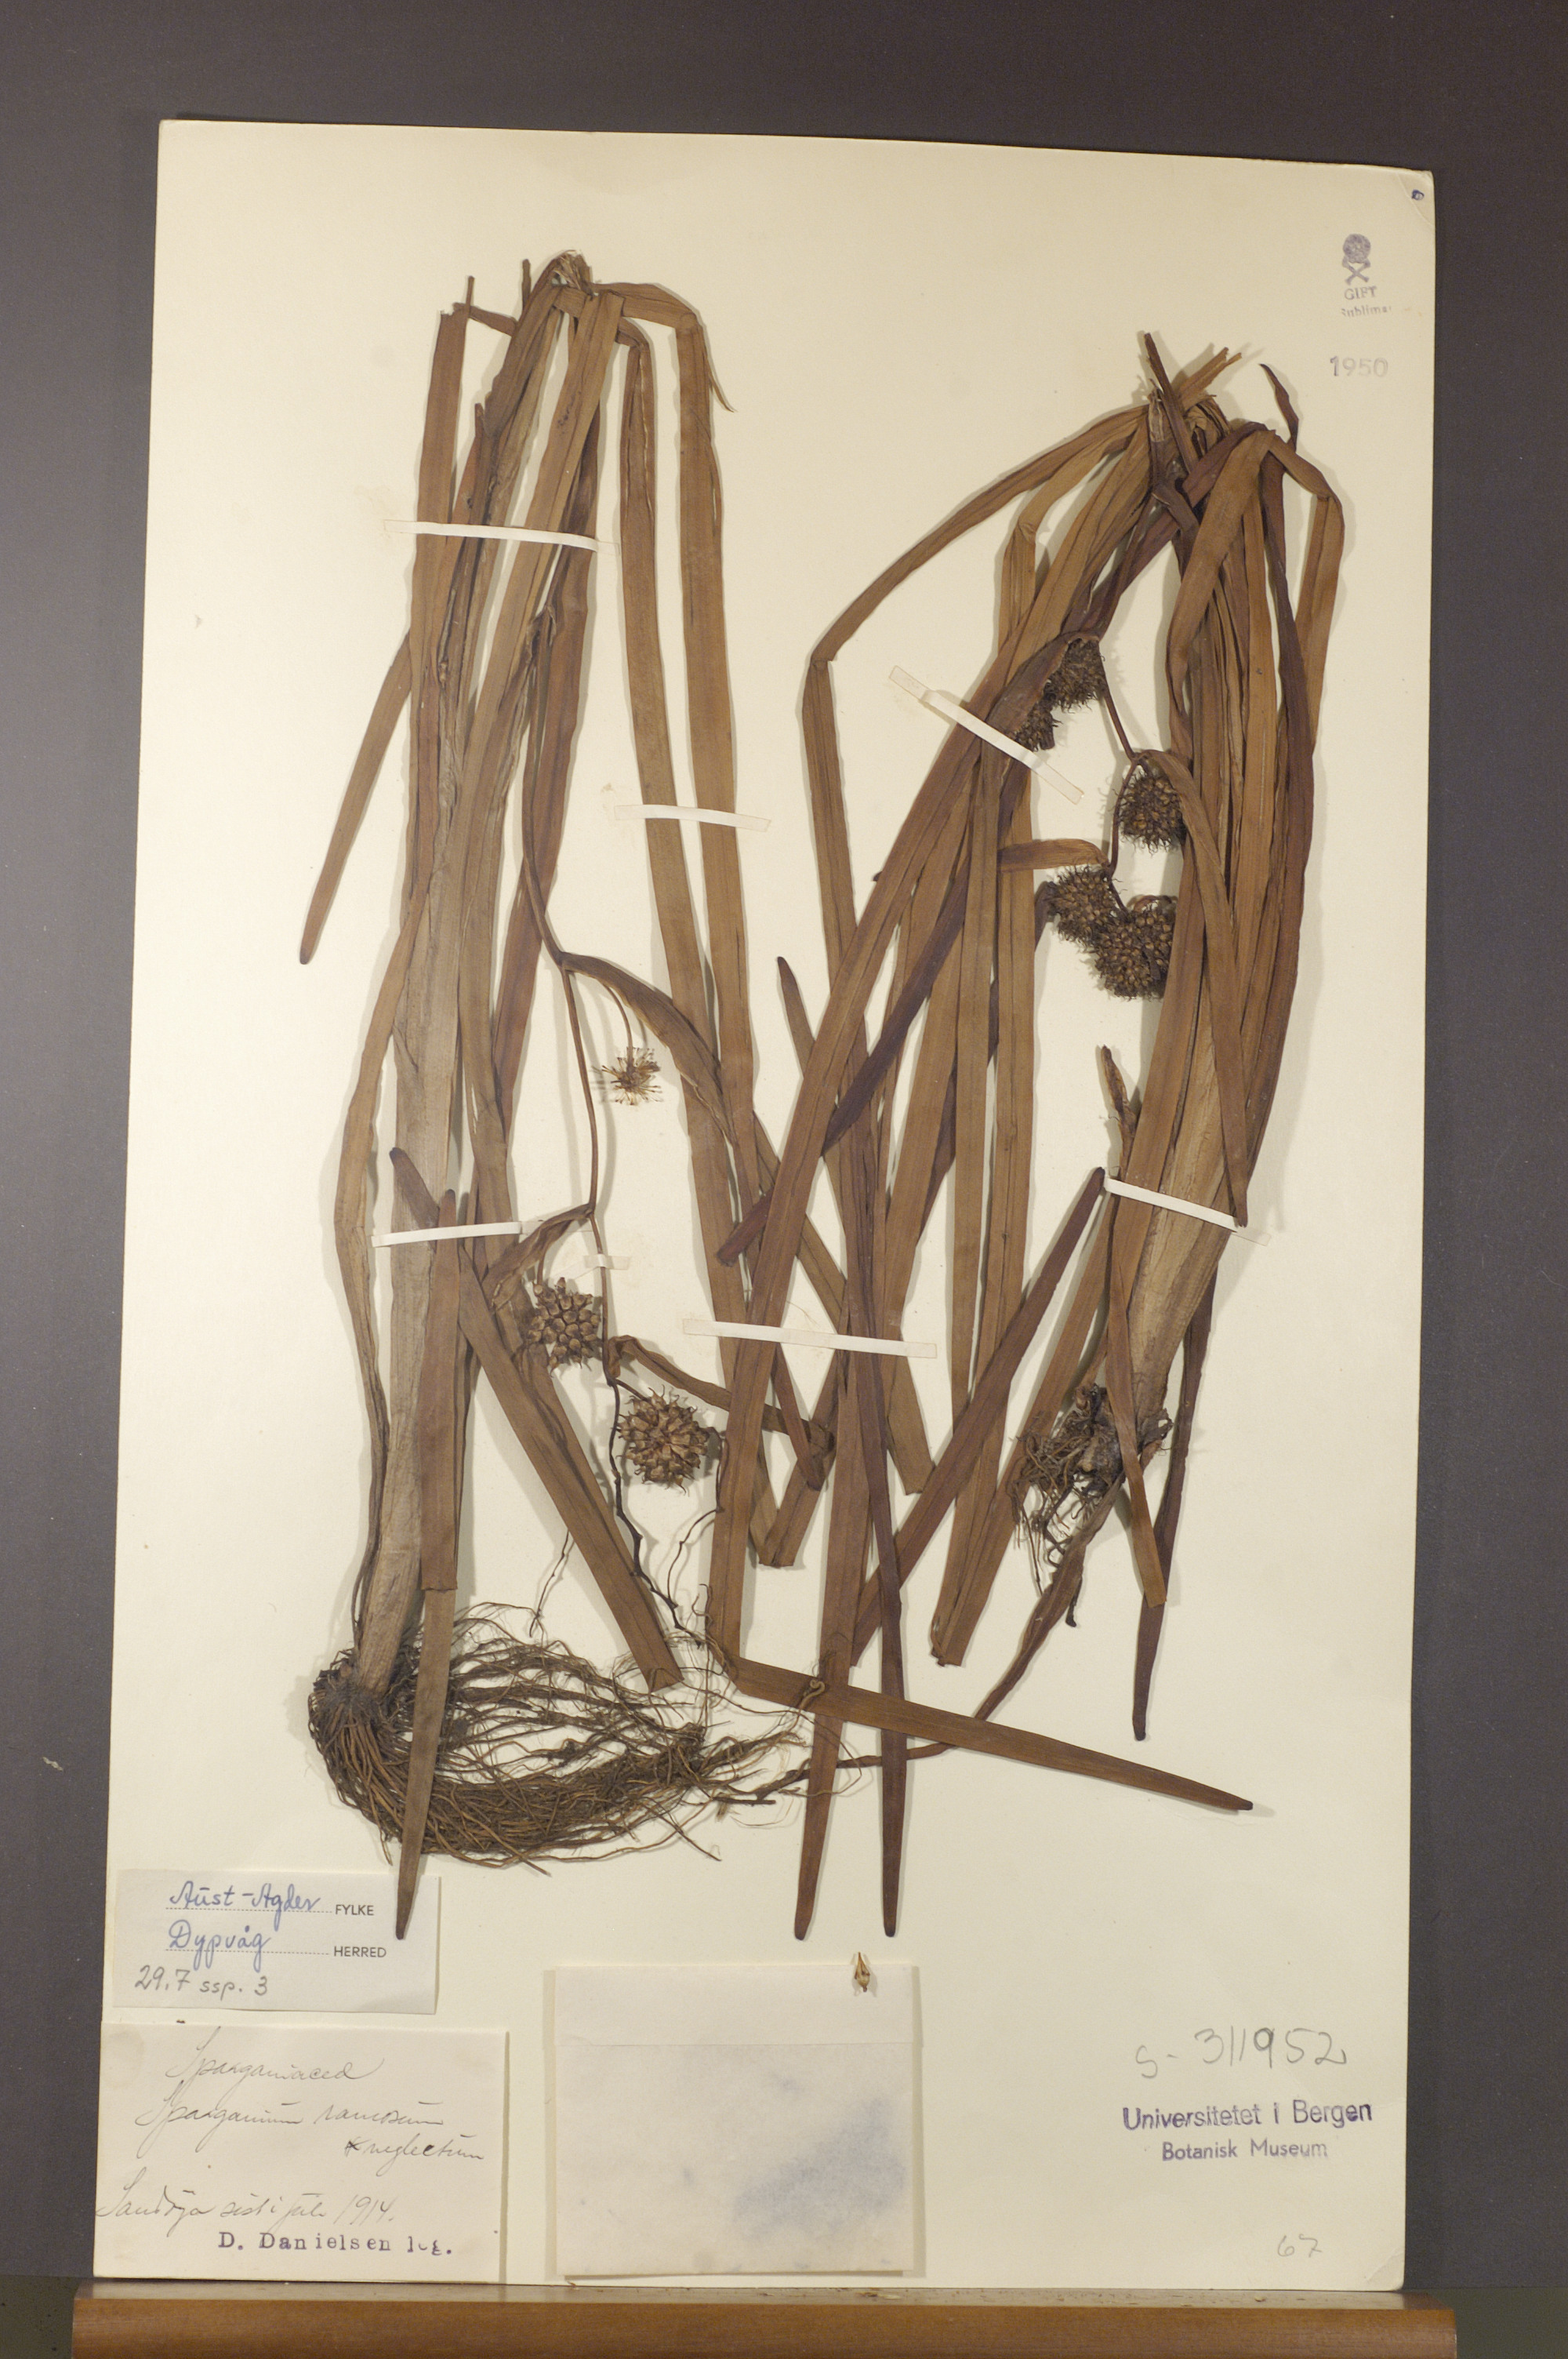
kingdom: Plantae
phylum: Tracheophyta
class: Liliopsida
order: Poales
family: Typhaceae
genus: Sparganium
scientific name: Sparganium erectum
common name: Branched bur-reed
